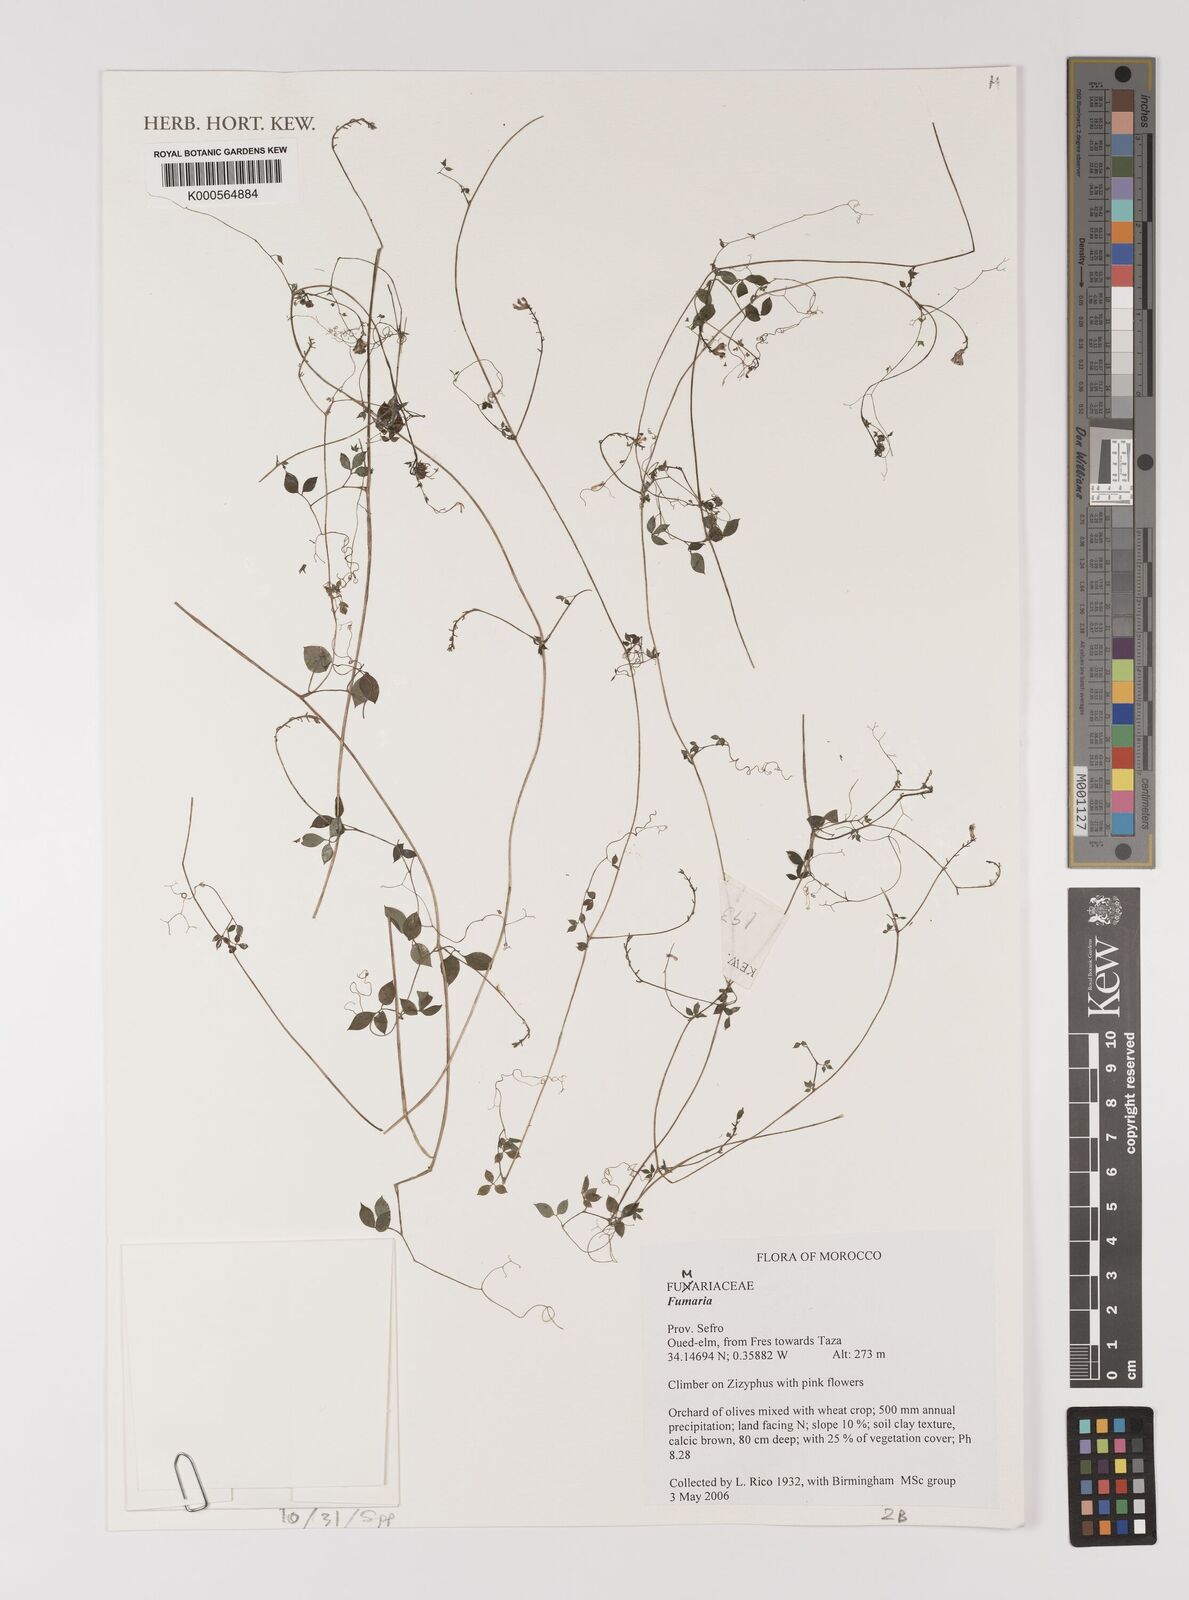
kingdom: Plantae
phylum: Tracheophyta
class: Magnoliopsida
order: Ranunculales
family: Papaveraceae
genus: Fumaria
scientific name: Fumaria
